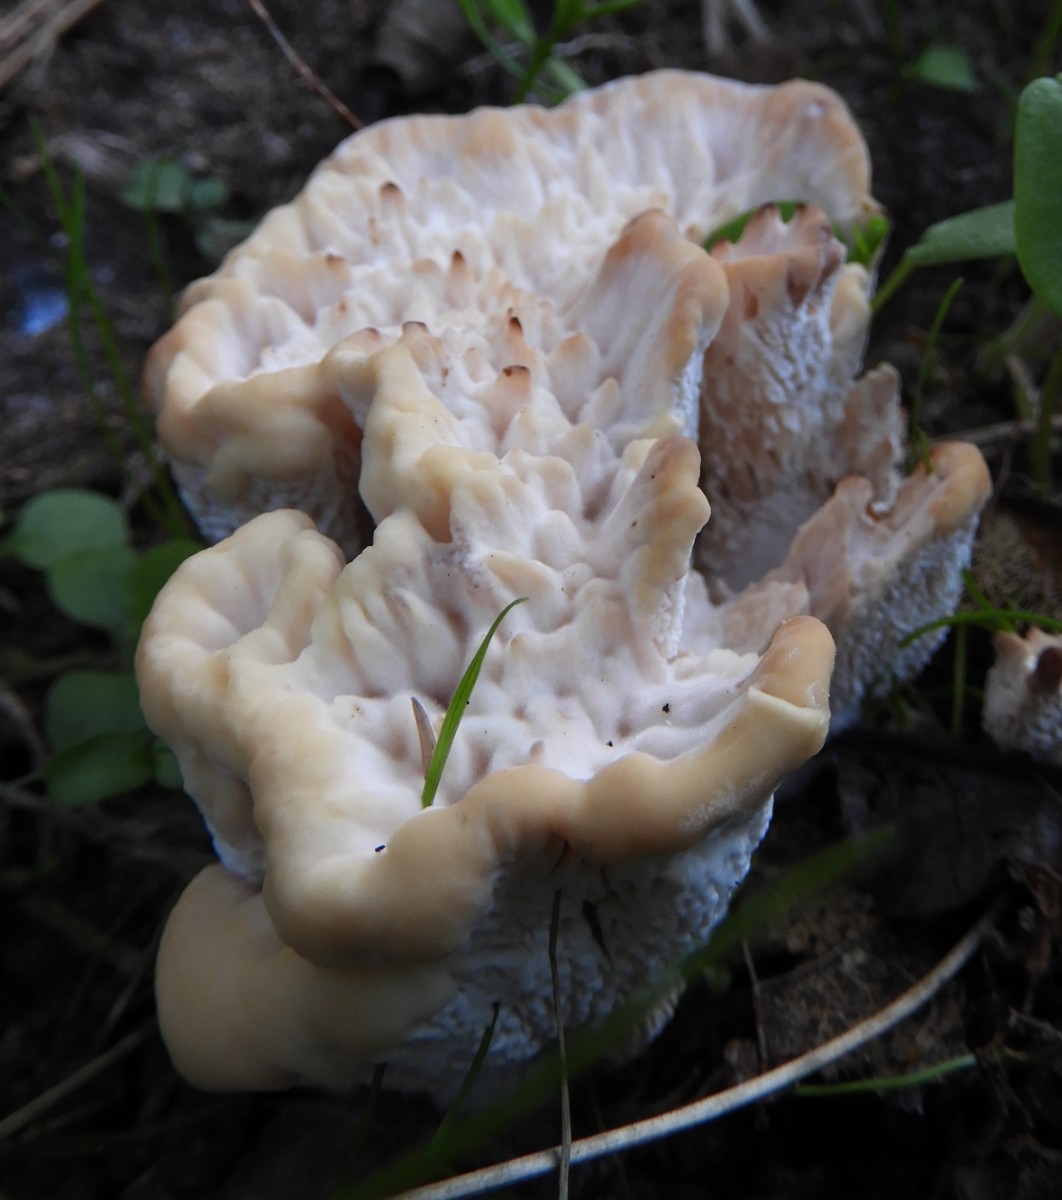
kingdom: Fungi
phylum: Basidiomycota
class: Agaricomycetes
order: Polyporales
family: Podoscyphaceae
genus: Abortiporus
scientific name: Abortiporus biennis
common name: rødmende pjalteporesvamp
